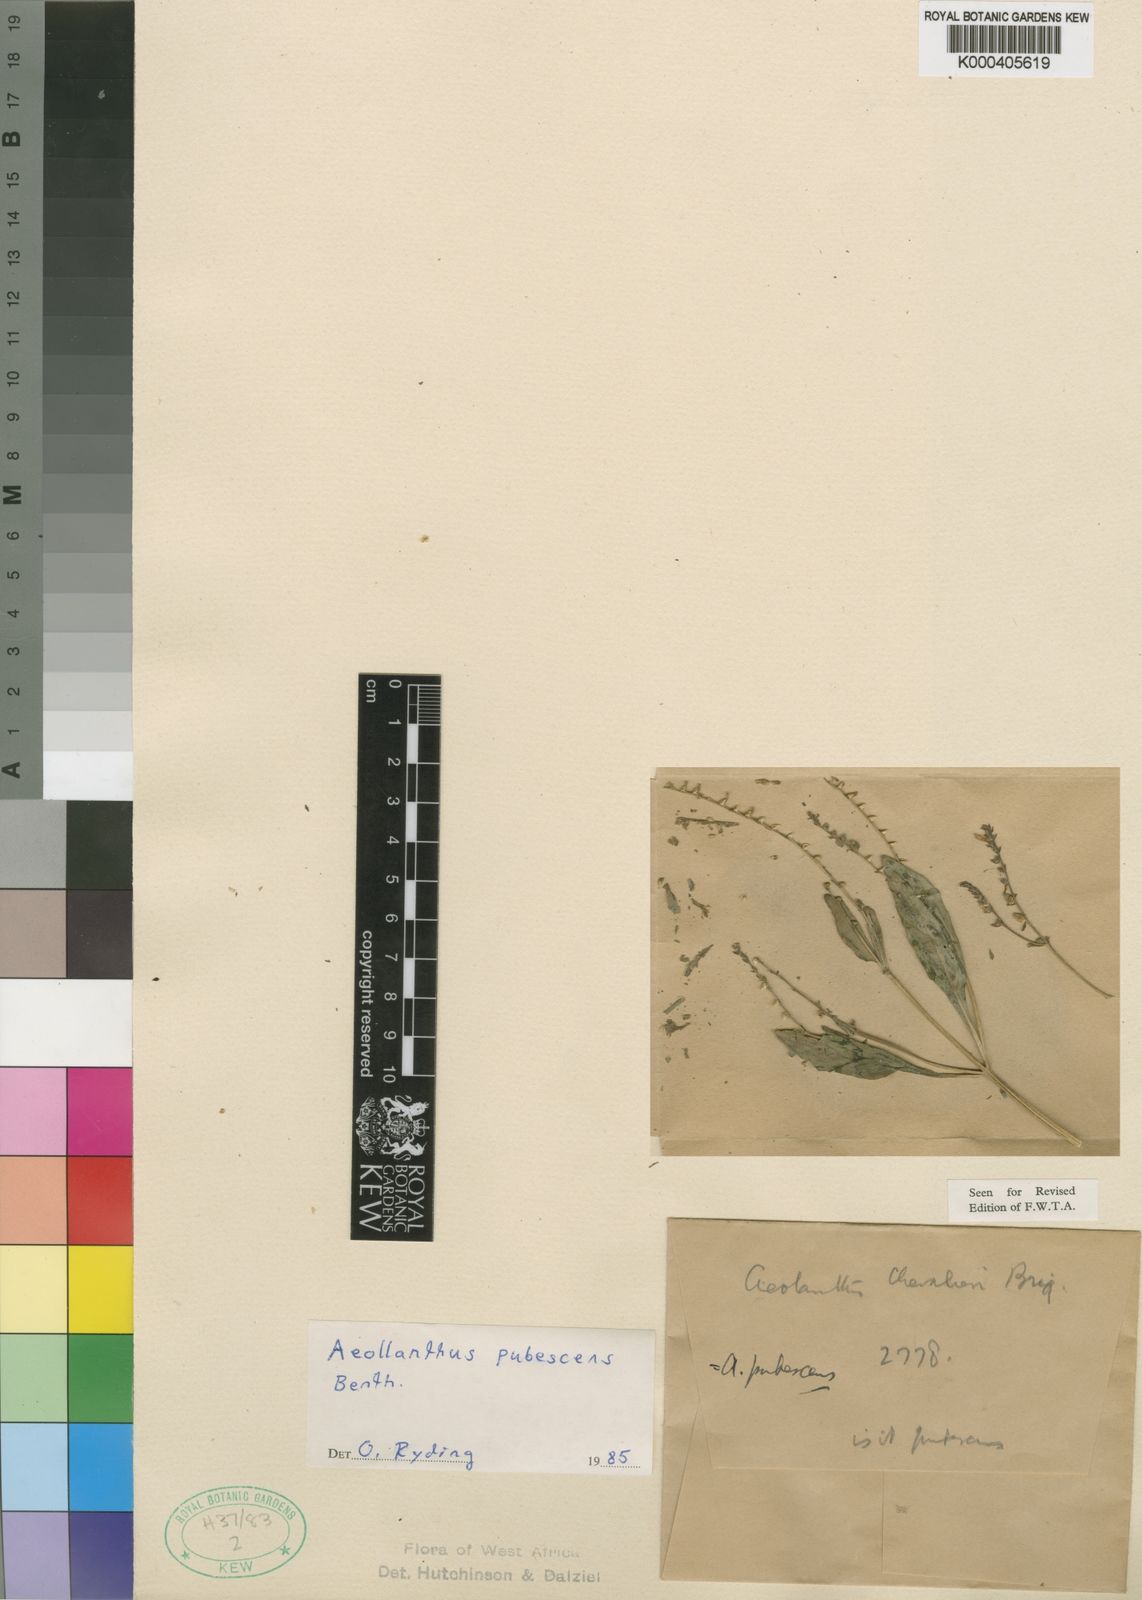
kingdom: Plantae
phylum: Tracheophyta
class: Magnoliopsida
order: Lamiales
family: Lamiaceae
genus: Aeollanthus
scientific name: Aeollanthus pubescens
